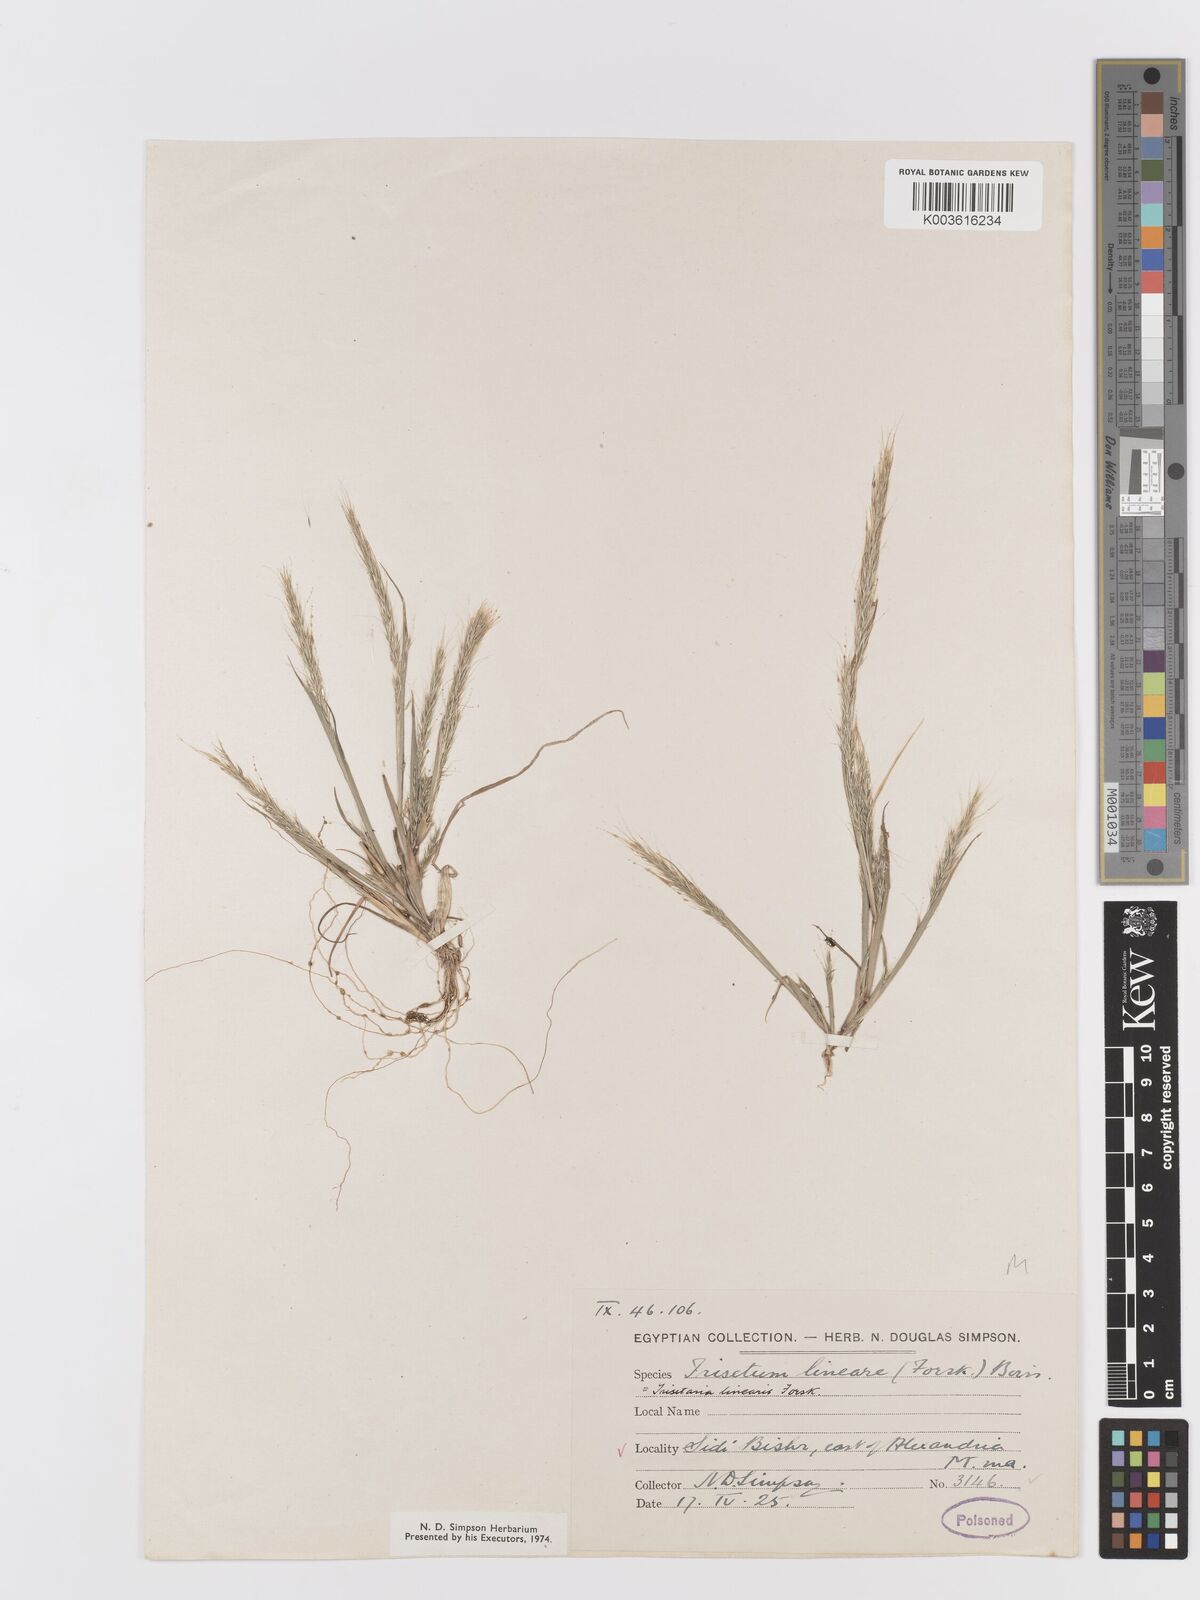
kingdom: Plantae
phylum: Tracheophyta
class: Liliopsida
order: Poales
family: Poaceae
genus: Trisetaria
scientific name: Trisetaria linearis
